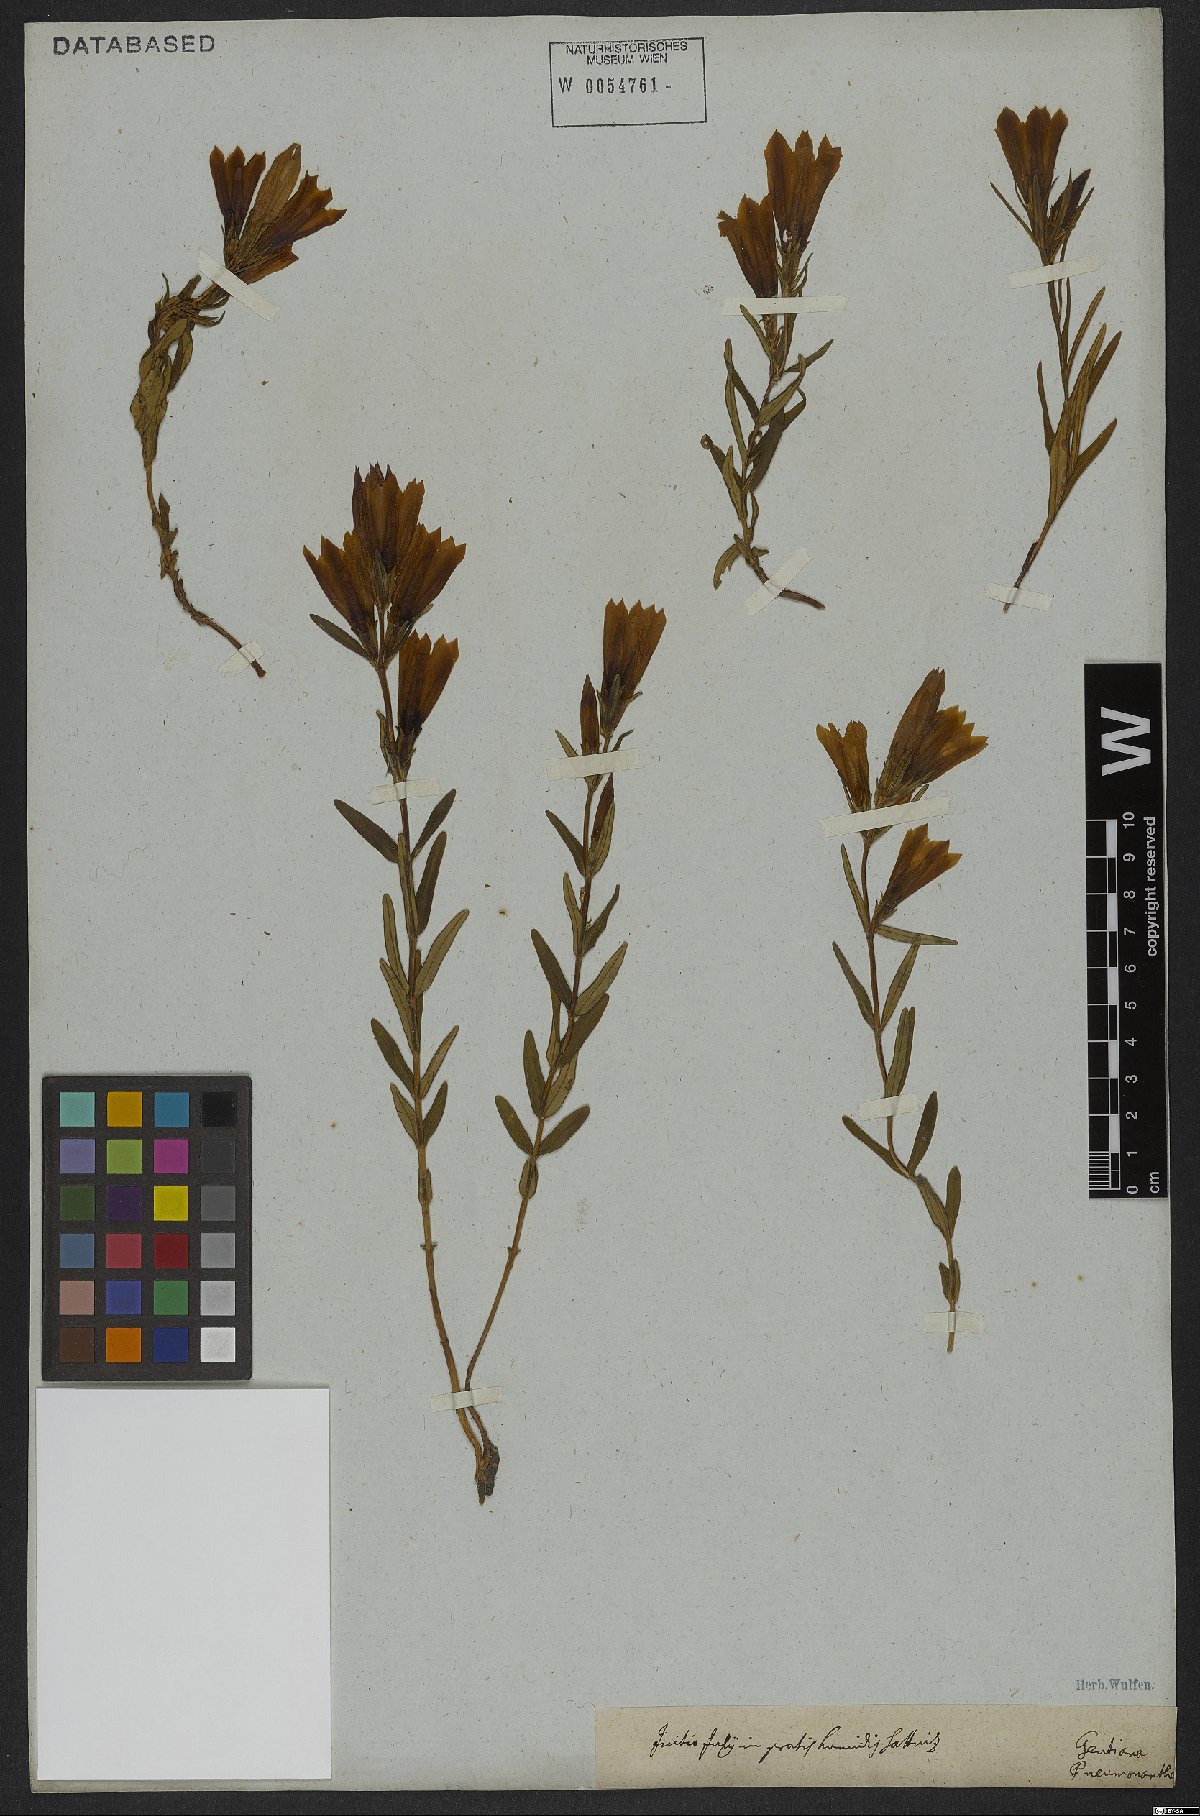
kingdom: Plantae
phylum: Tracheophyta
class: Magnoliopsida
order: Gentianales
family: Gentianaceae
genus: Gentiana
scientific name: Gentiana pneumonanthe
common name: Marsh gentian
